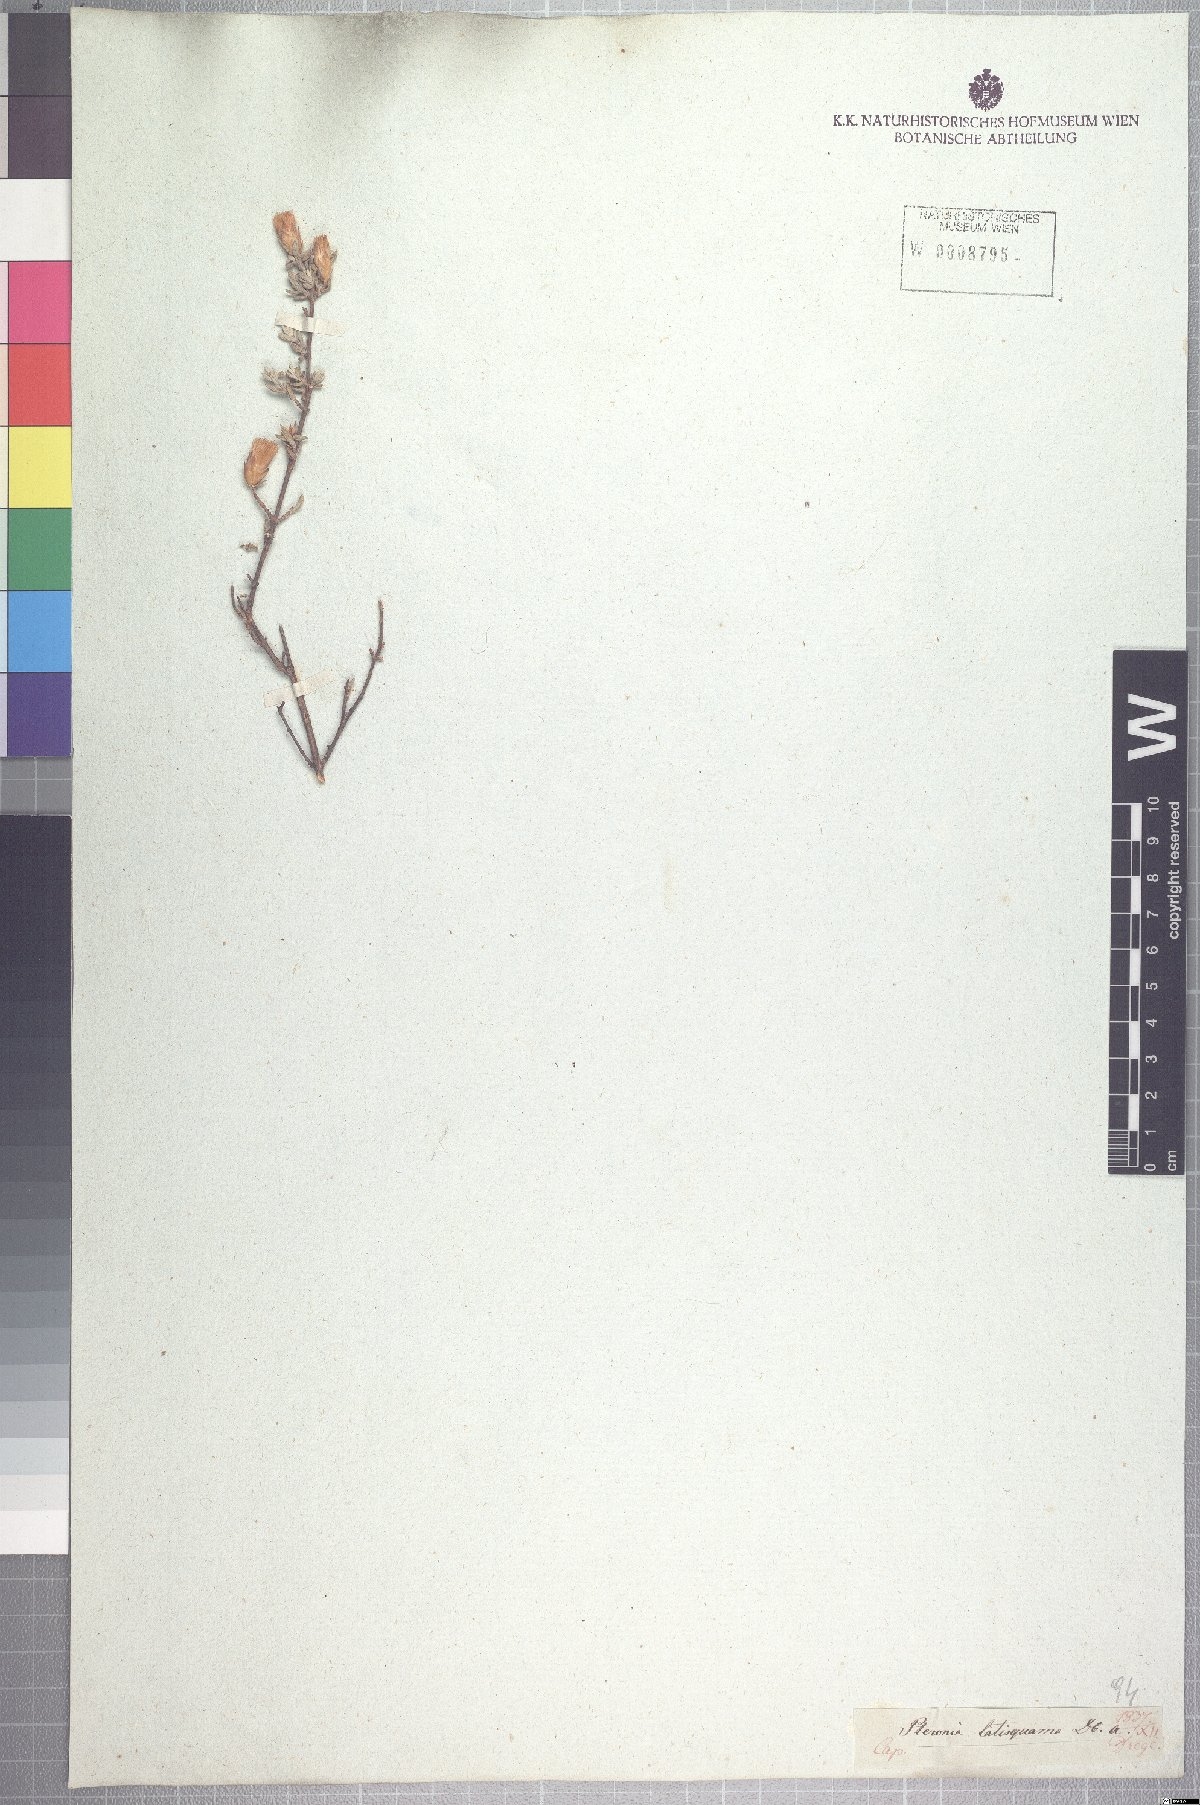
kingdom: Plantae
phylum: Tracheophyta
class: Magnoliopsida
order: Asterales
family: Asteraceae
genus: Pteronia
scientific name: Pteronia glauca
